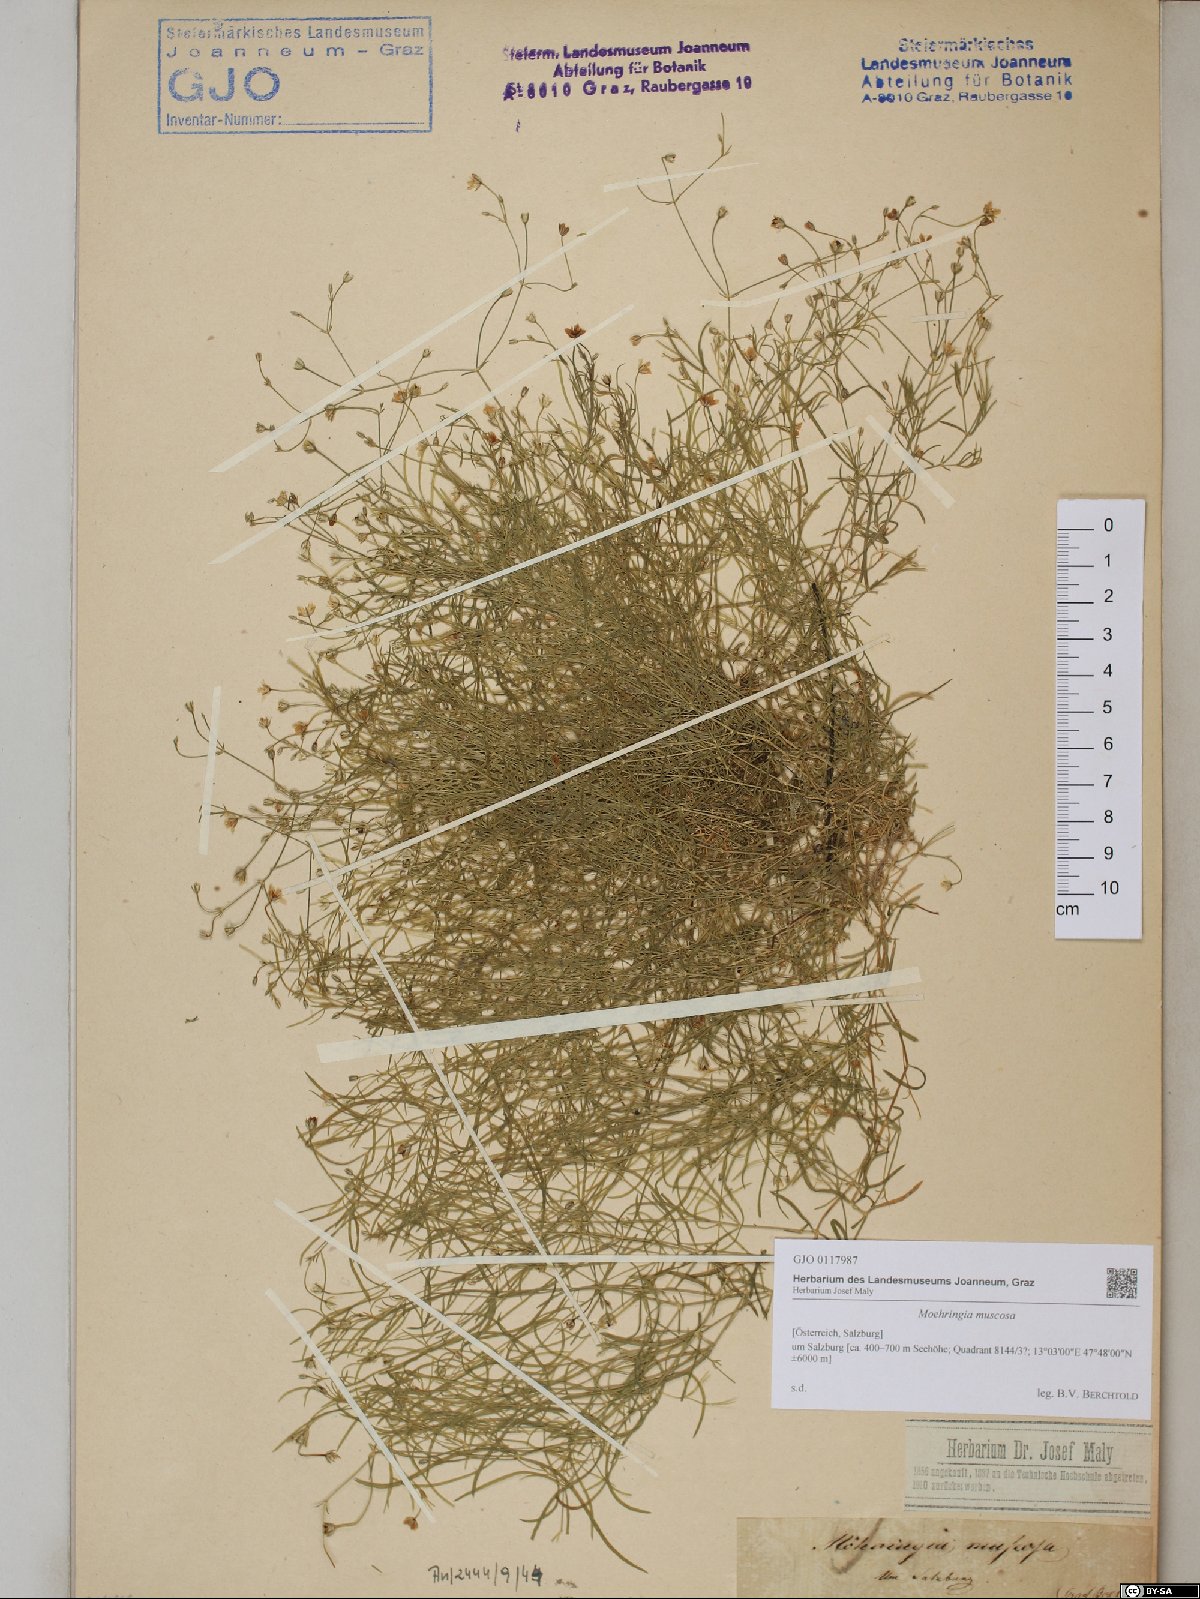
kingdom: Plantae
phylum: Tracheophyta
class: Magnoliopsida
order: Caryophyllales
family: Caryophyllaceae
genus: Moehringia
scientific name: Moehringia muscosa
